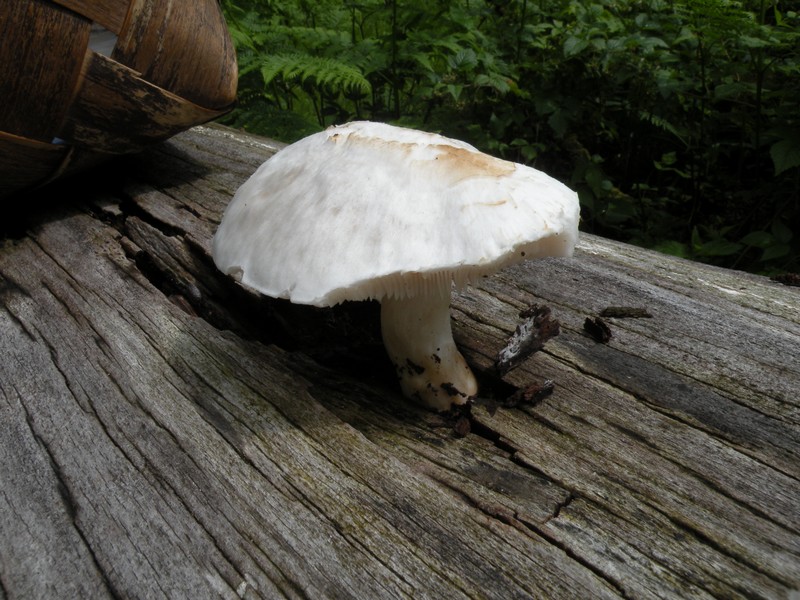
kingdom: Fungi
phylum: Basidiomycota
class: Agaricomycetes
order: Agaricales
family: Pluteaceae
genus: Pluteus
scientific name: Pluteus
